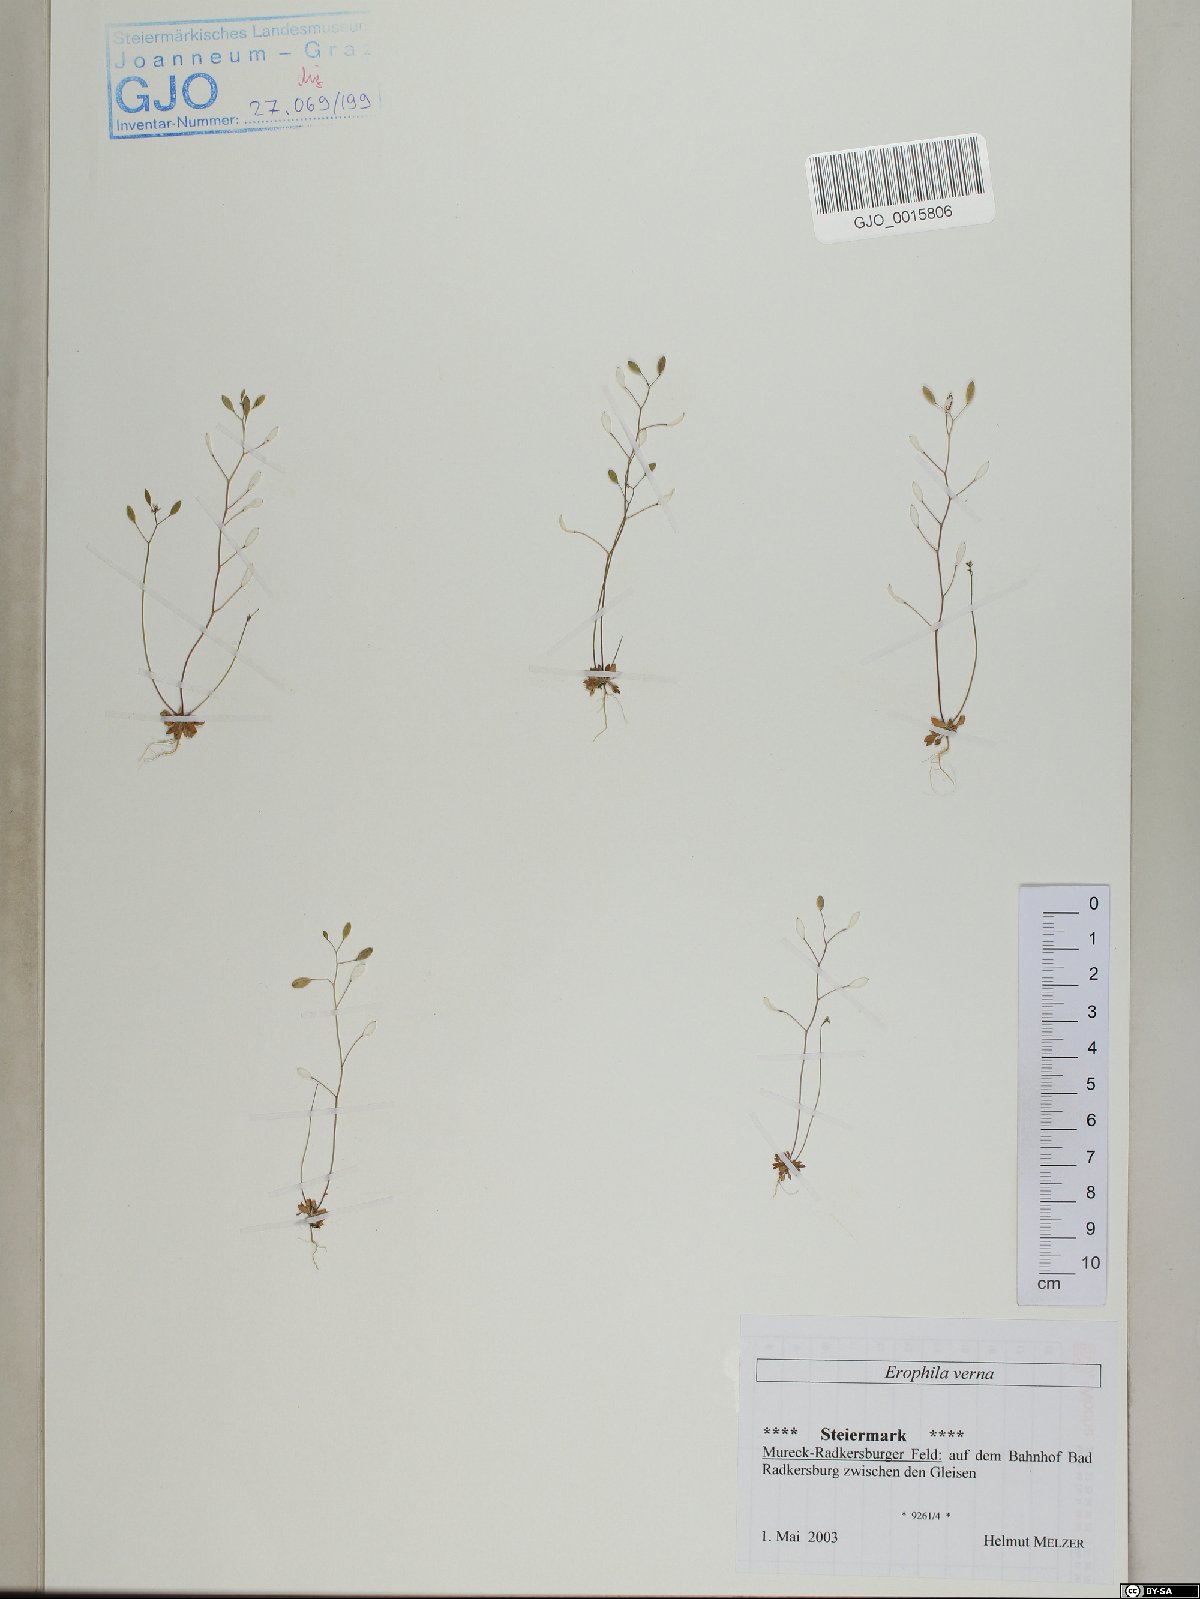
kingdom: Plantae
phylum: Tracheophyta
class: Magnoliopsida
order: Brassicales
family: Brassicaceae
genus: Draba
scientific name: Draba verna
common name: Spring draba
